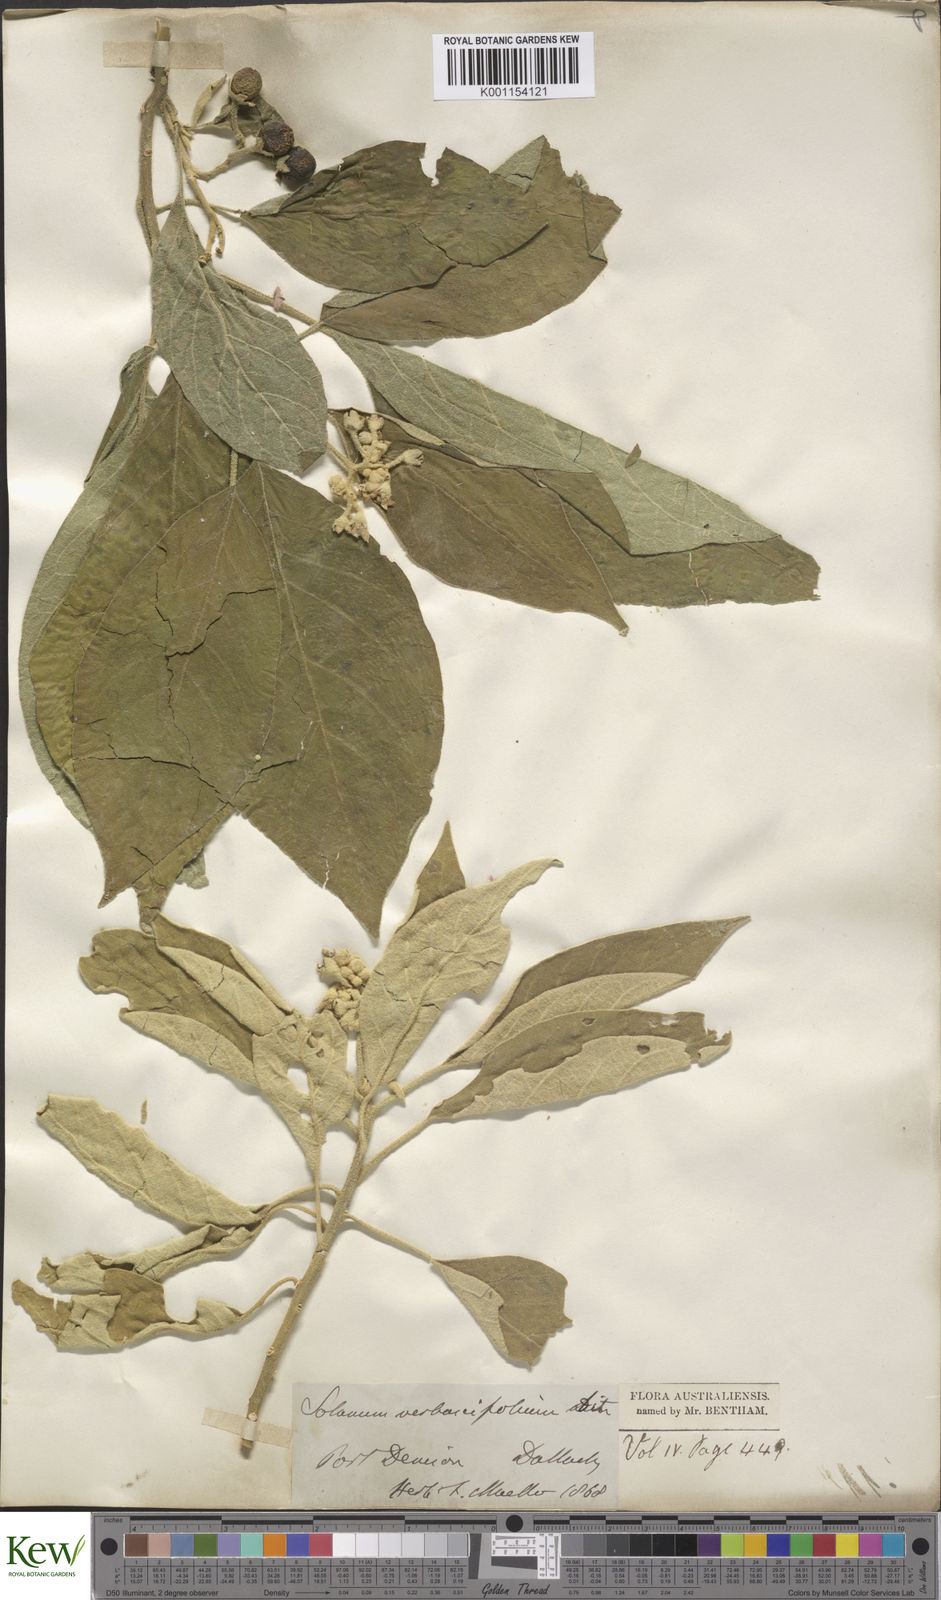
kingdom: Plantae
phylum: Tracheophyta
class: Magnoliopsida
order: Solanales
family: Solanaceae
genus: Solanum
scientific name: Solanum erianthum
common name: Tobacco-tree
